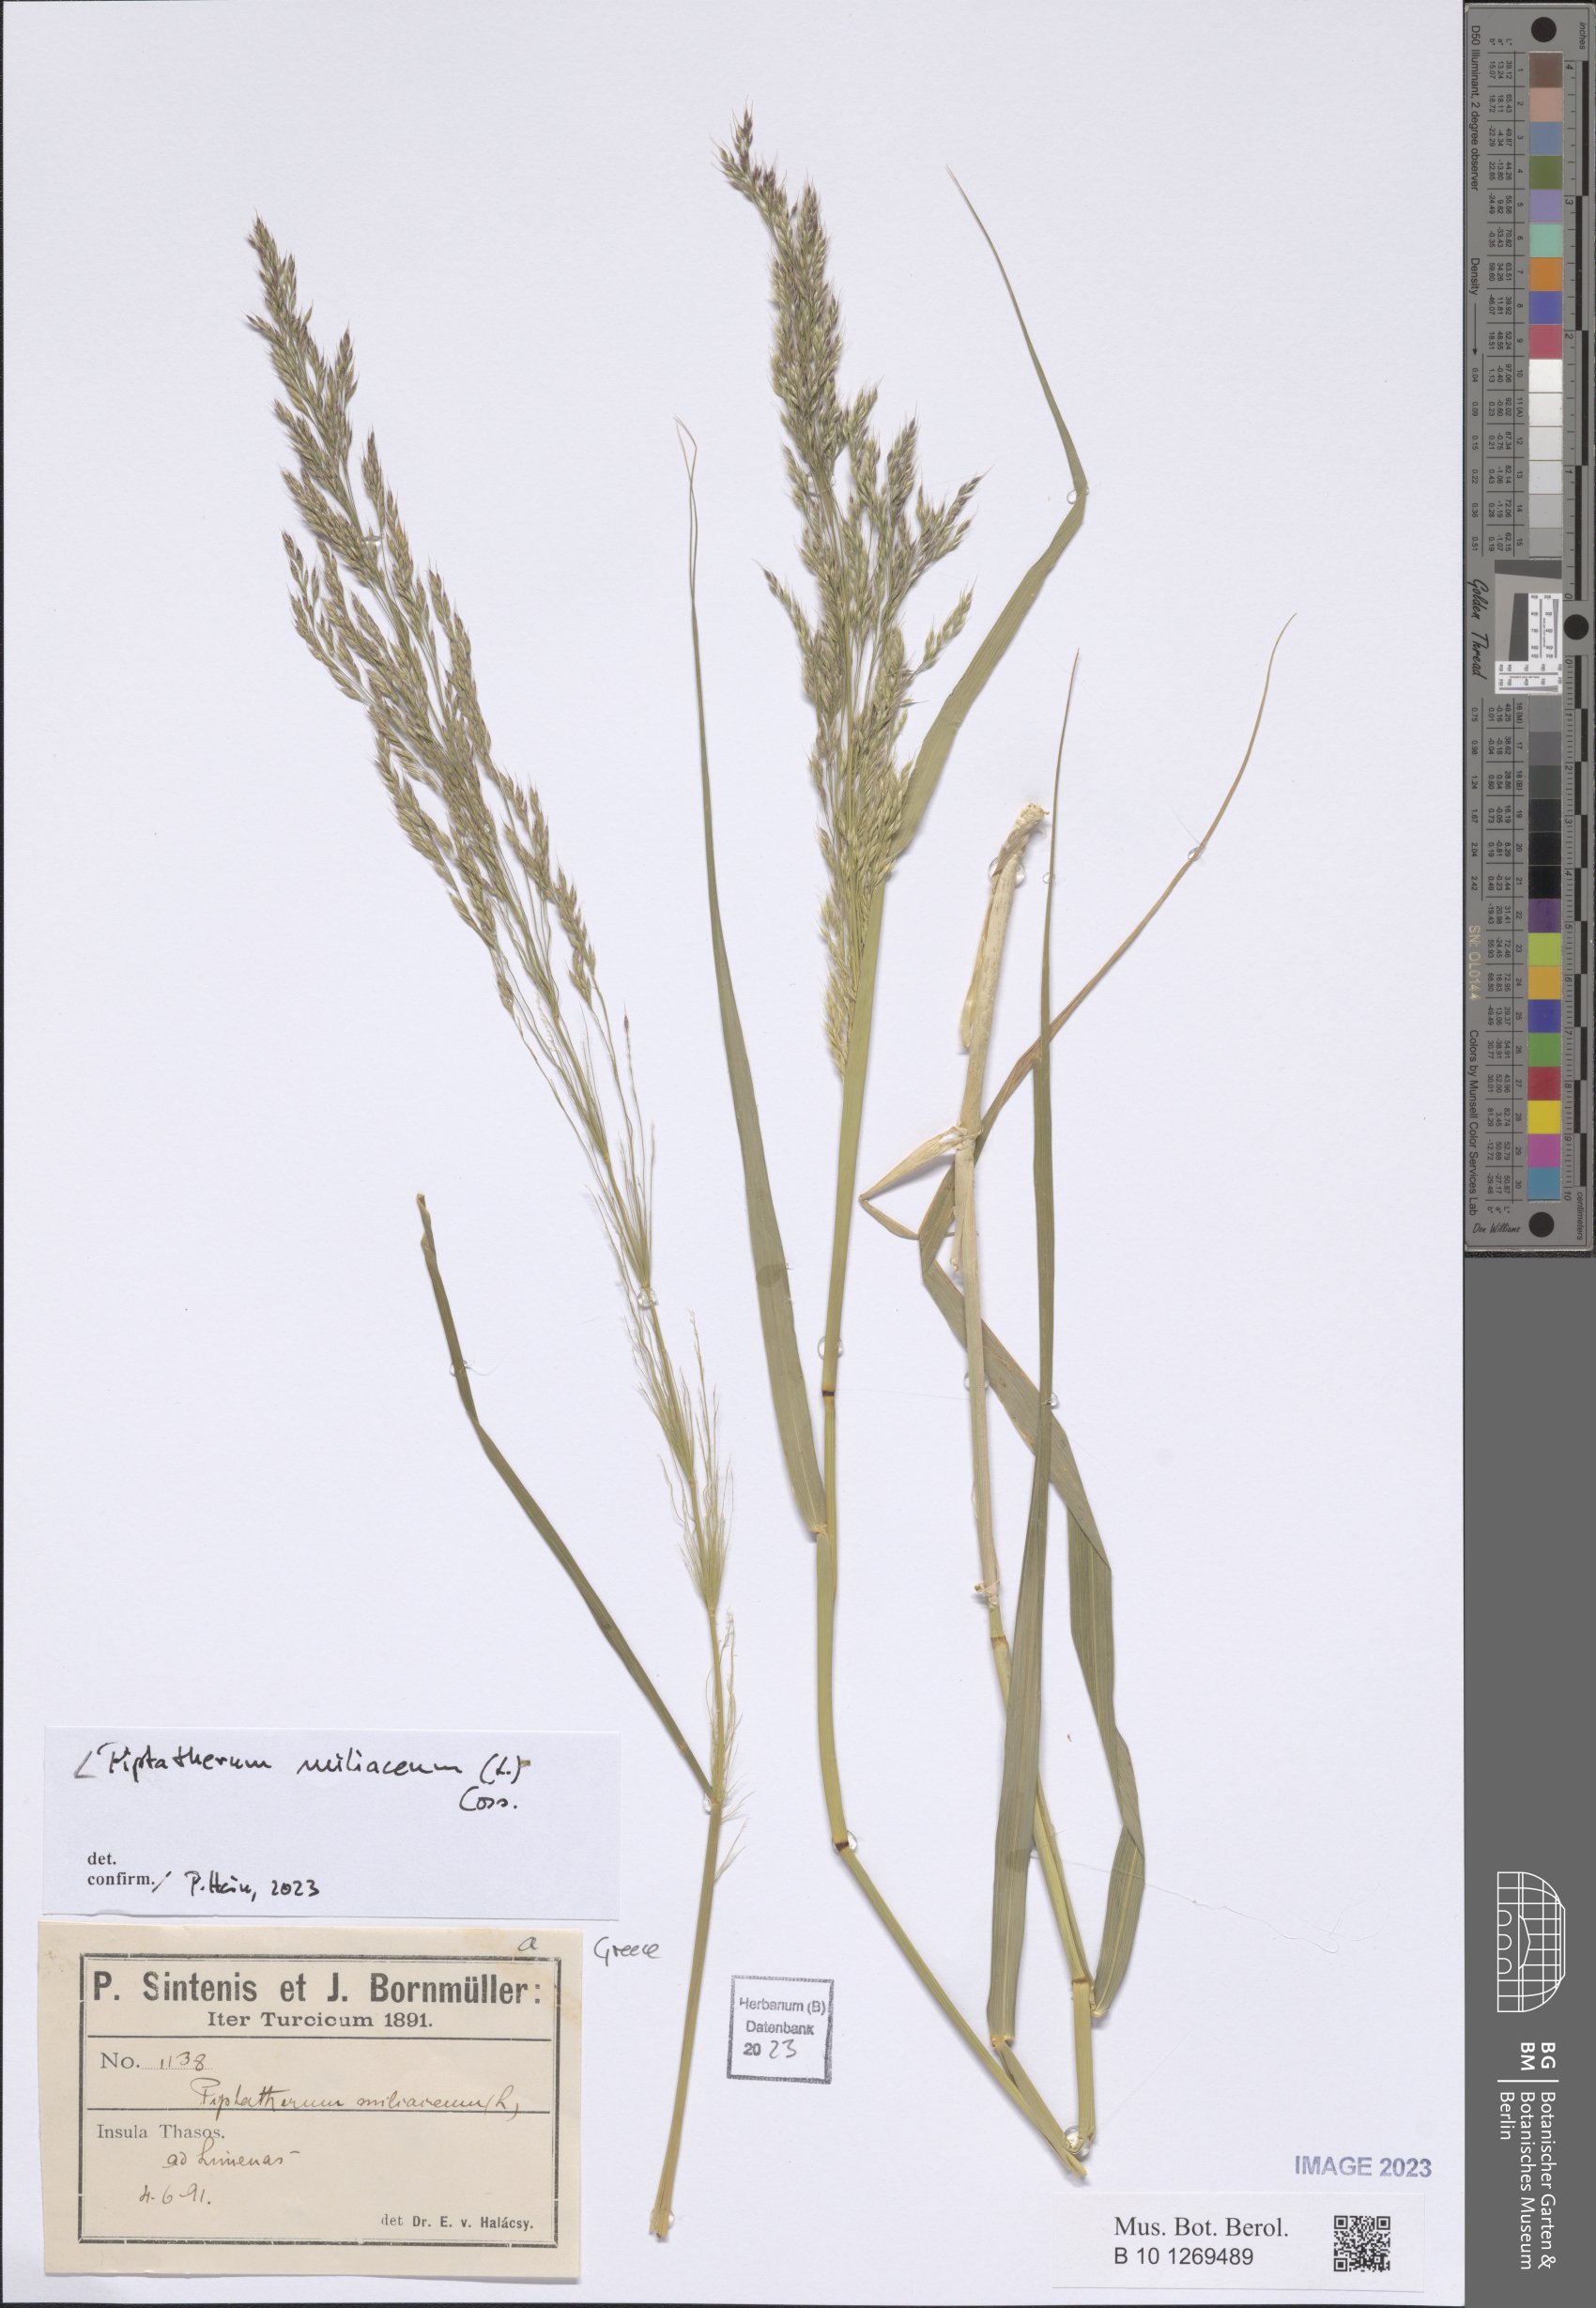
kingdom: Plantae
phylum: Tracheophyta
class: Liliopsida
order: Poales
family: Poaceae
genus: Oloptum
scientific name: Oloptum miliaceum
